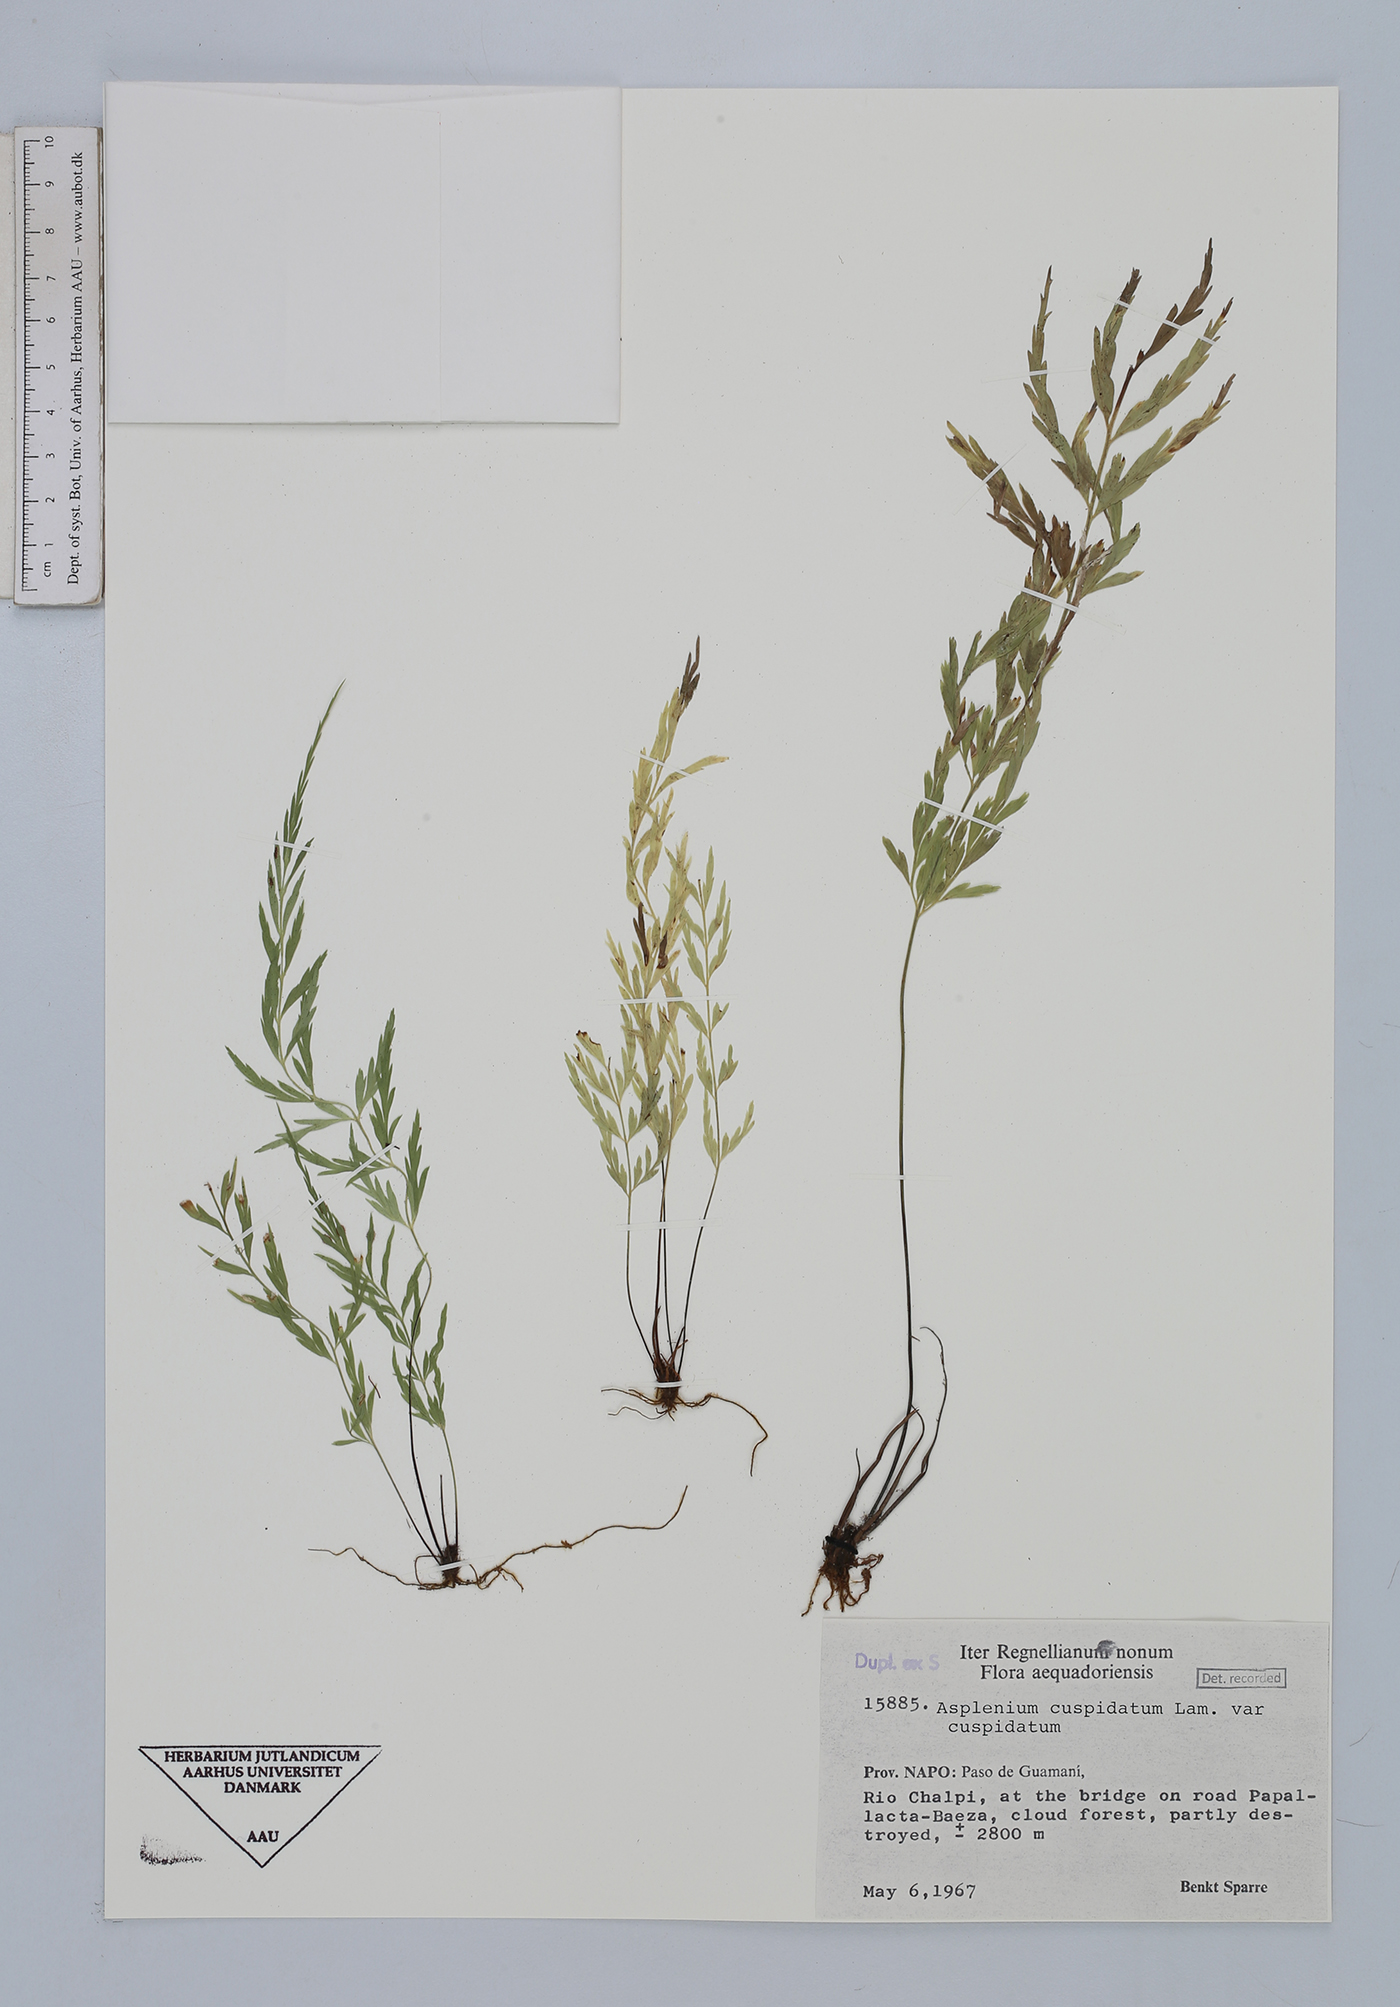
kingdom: Plantae
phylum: Tracheophyta
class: Polypodiopsida
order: Polypodiales
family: Aspleniaceae
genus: Asplenium
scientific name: Asplenium cuspidatum
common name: Eared spleenwort
